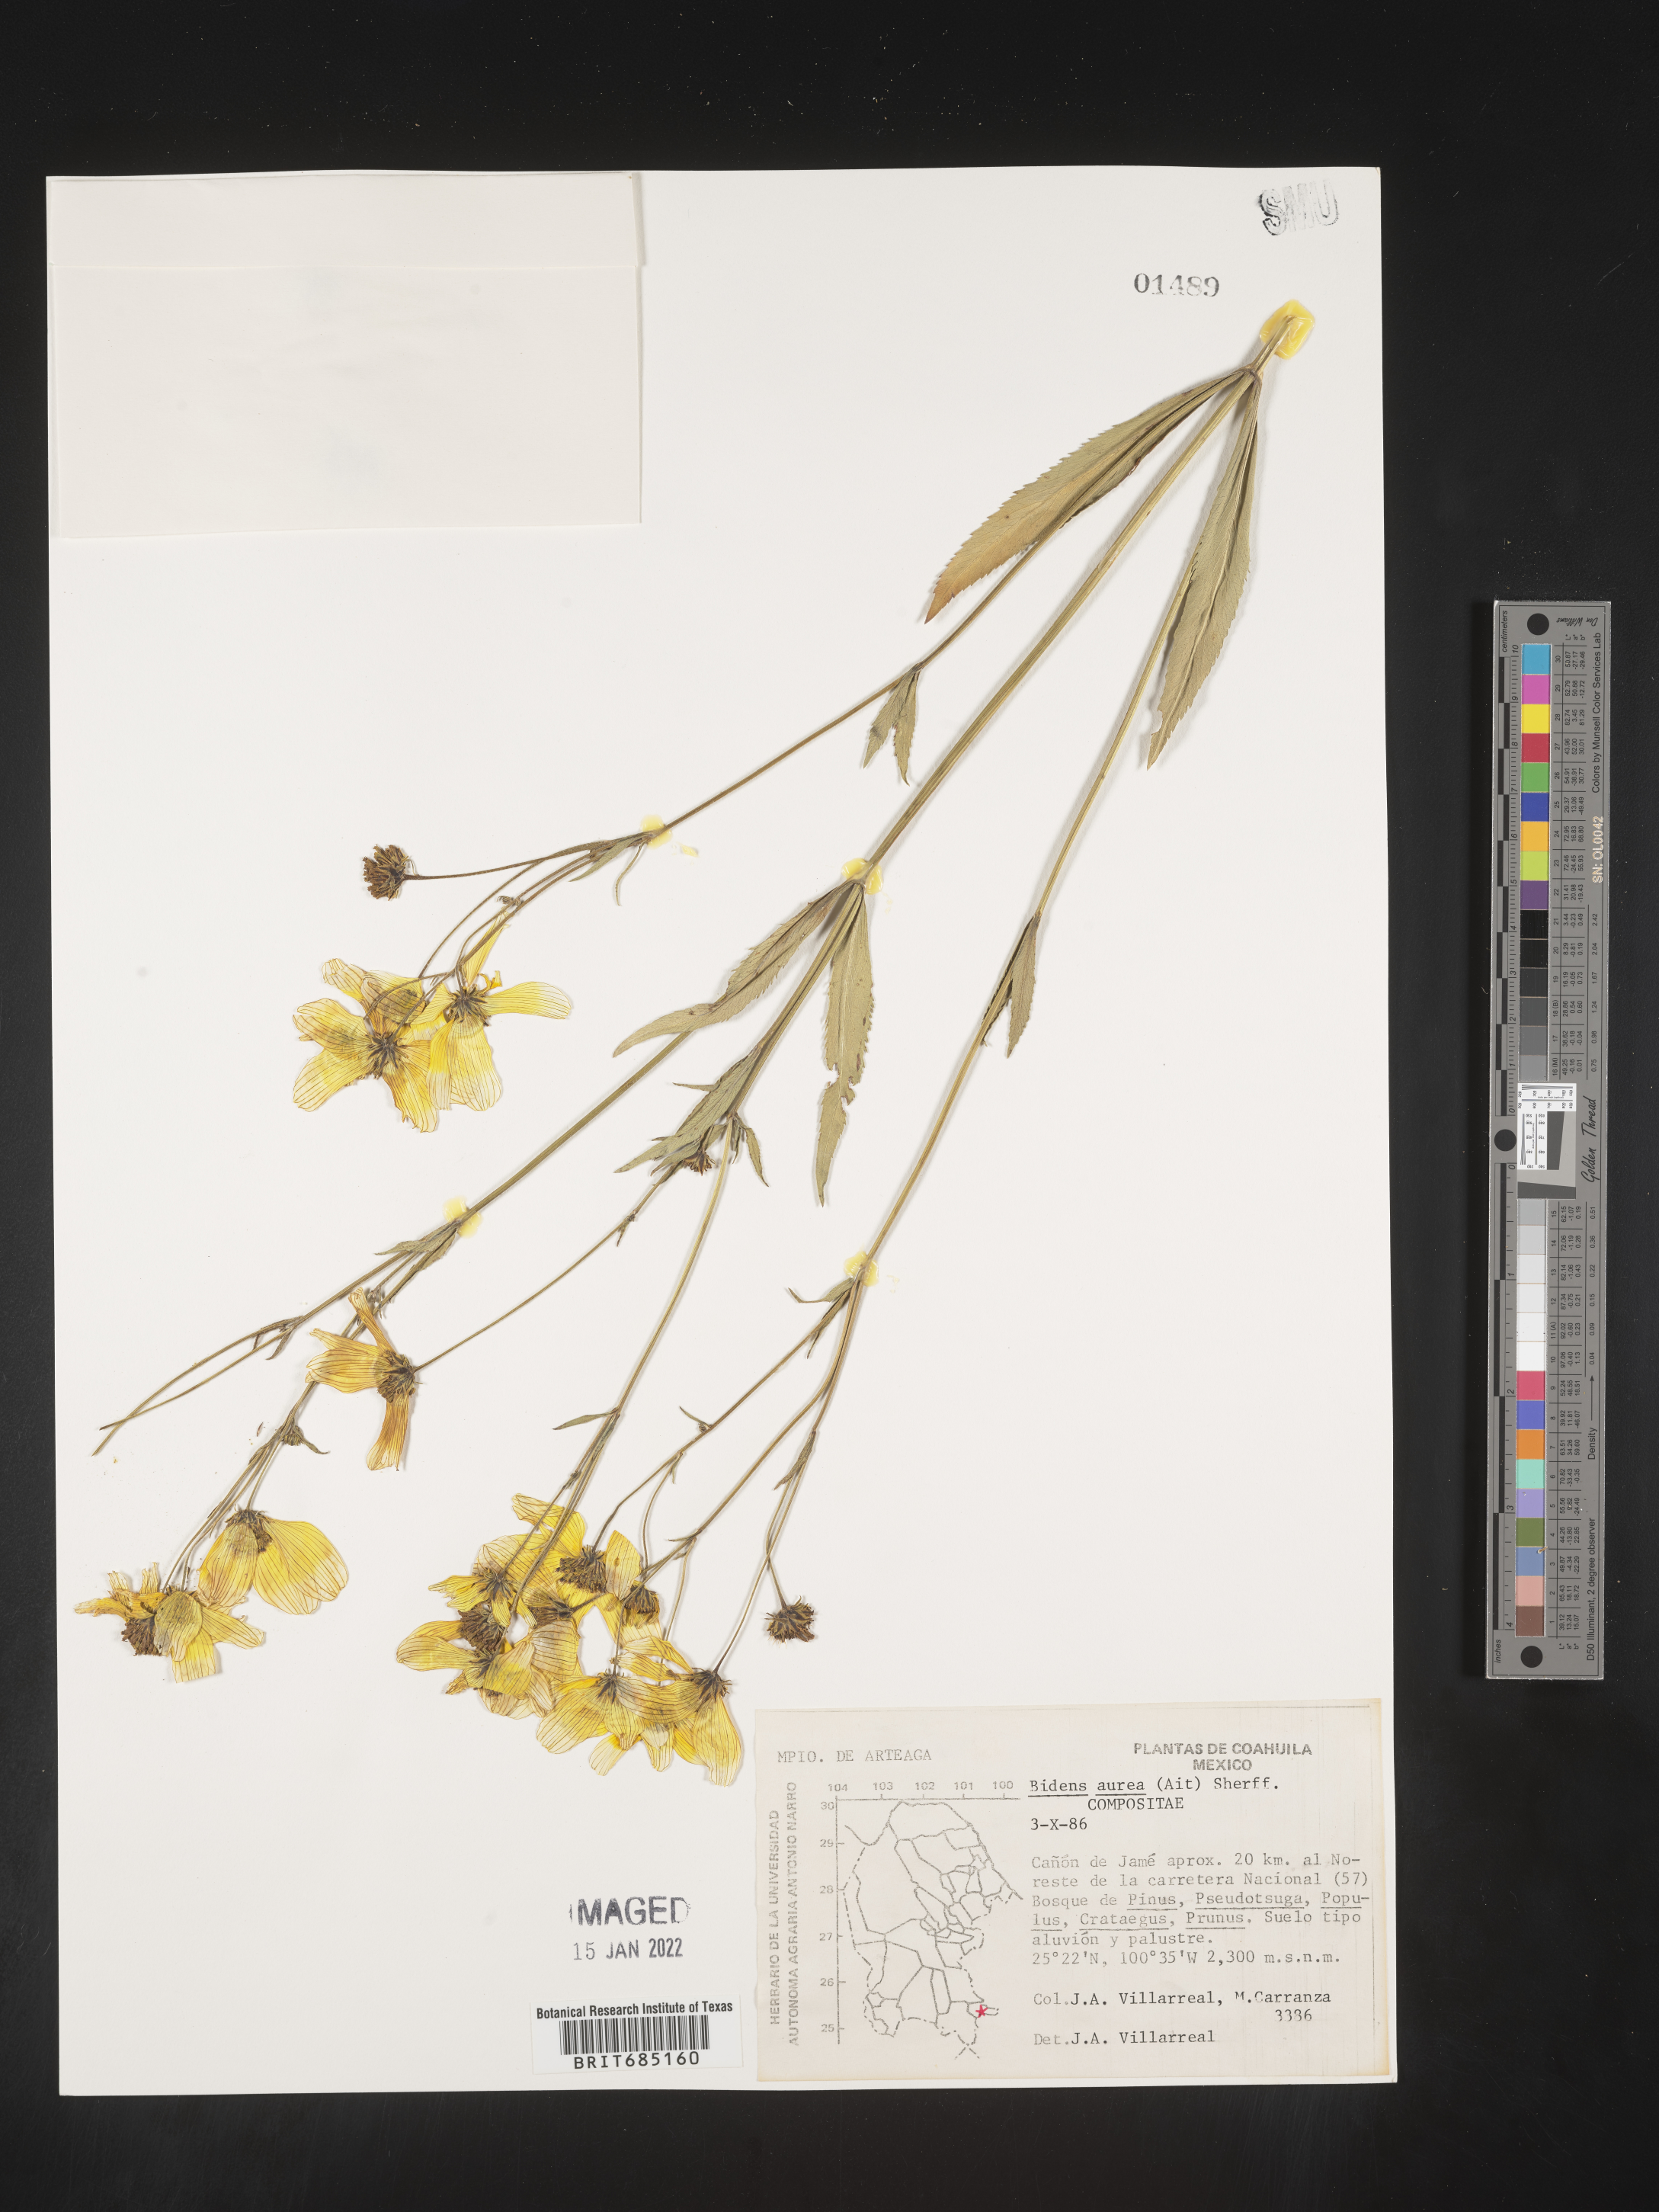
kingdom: Plantae
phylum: Tracheophyta
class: Magnoliopsida
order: Asterales
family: Asteraceae
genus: Bidens
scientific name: Bidens
